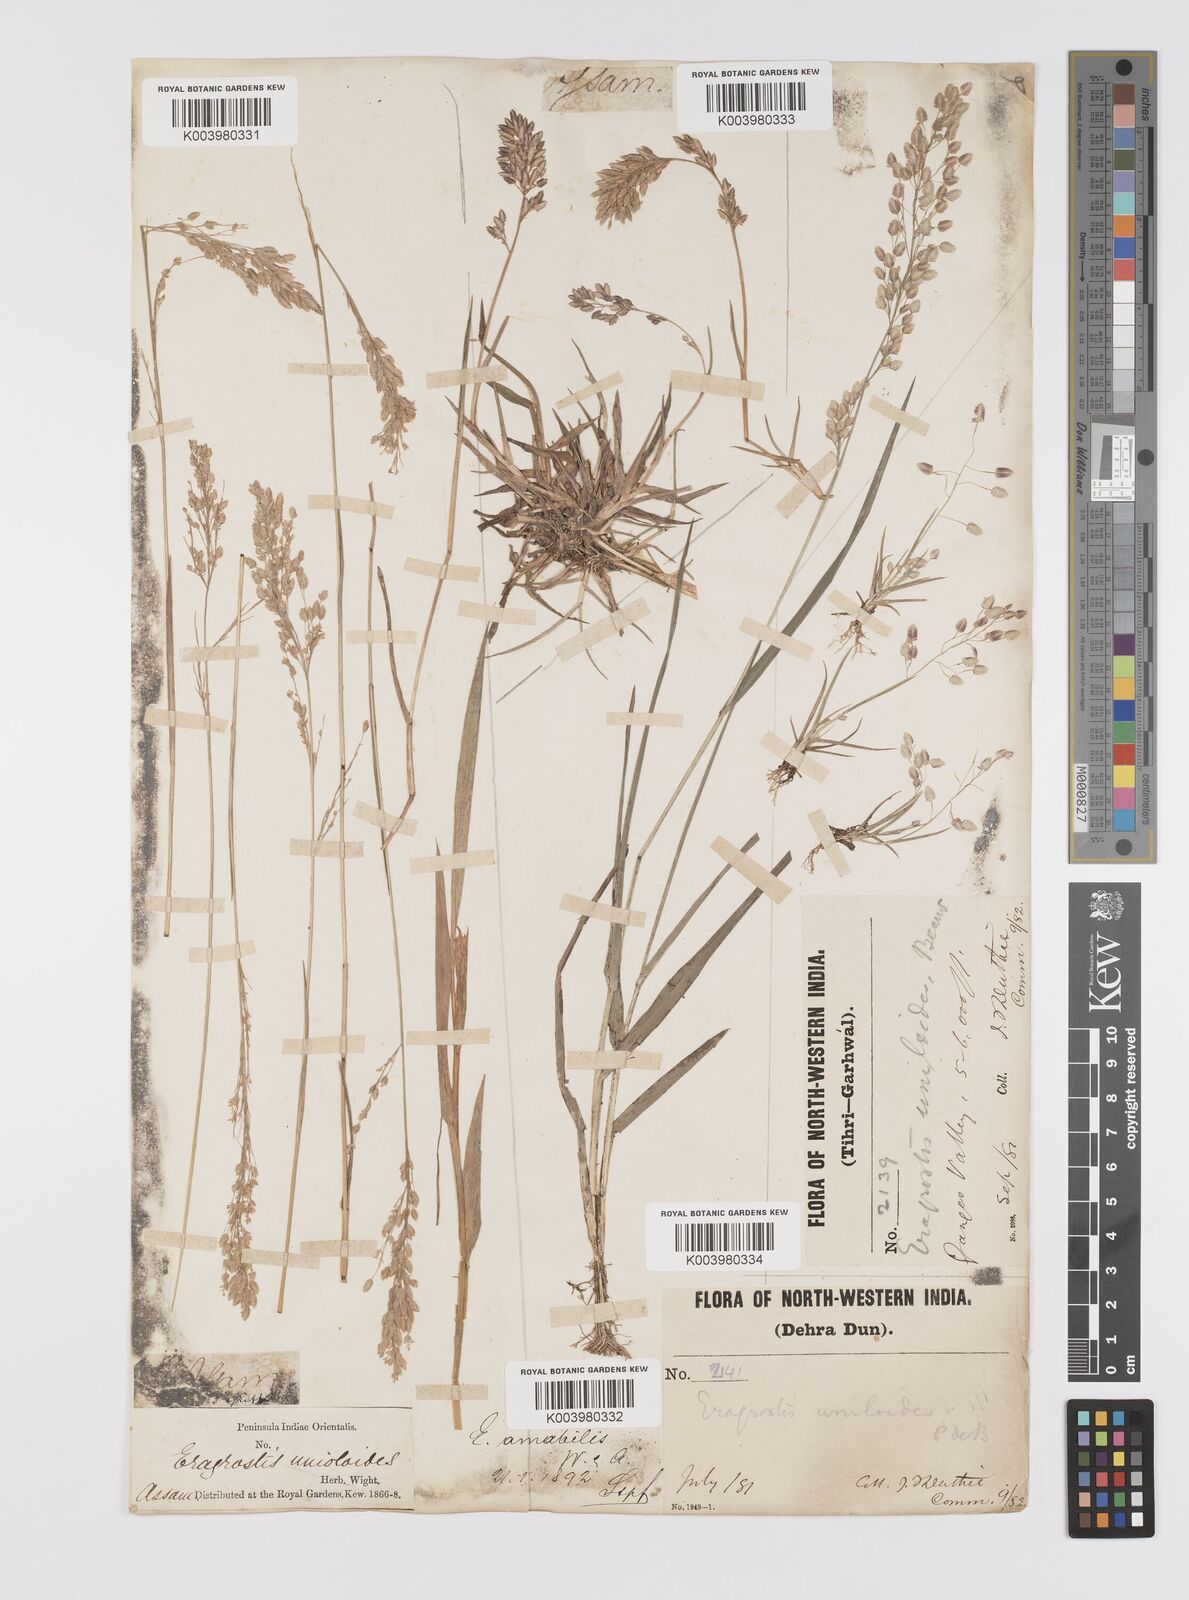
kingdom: Plantae
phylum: Tracheophyta
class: Liliopsida
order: Poales
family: Poaceae
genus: Eragrostis
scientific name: Eragrostis unioloides
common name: Chinese lovegrass
